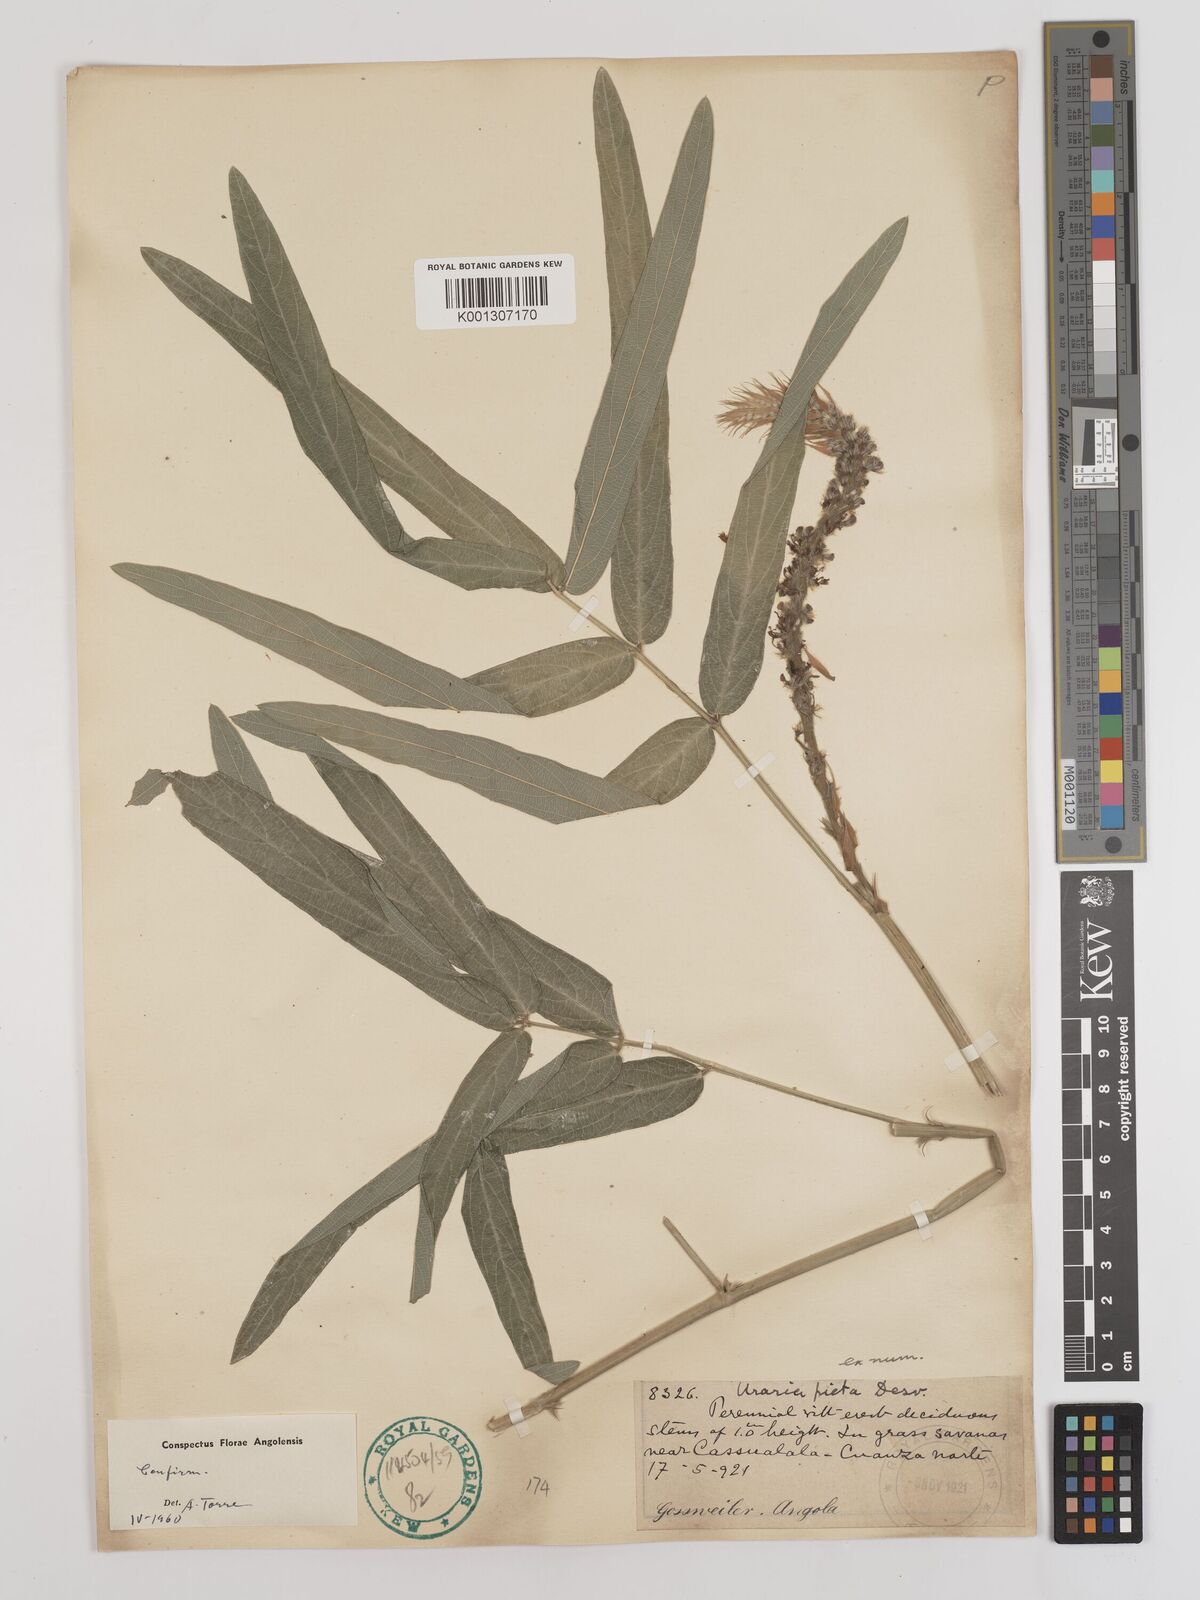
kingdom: Plantae
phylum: Tracheophyta
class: Magnoliopsida
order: Fabales
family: Fabaceae
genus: Uraria
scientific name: Uraria
